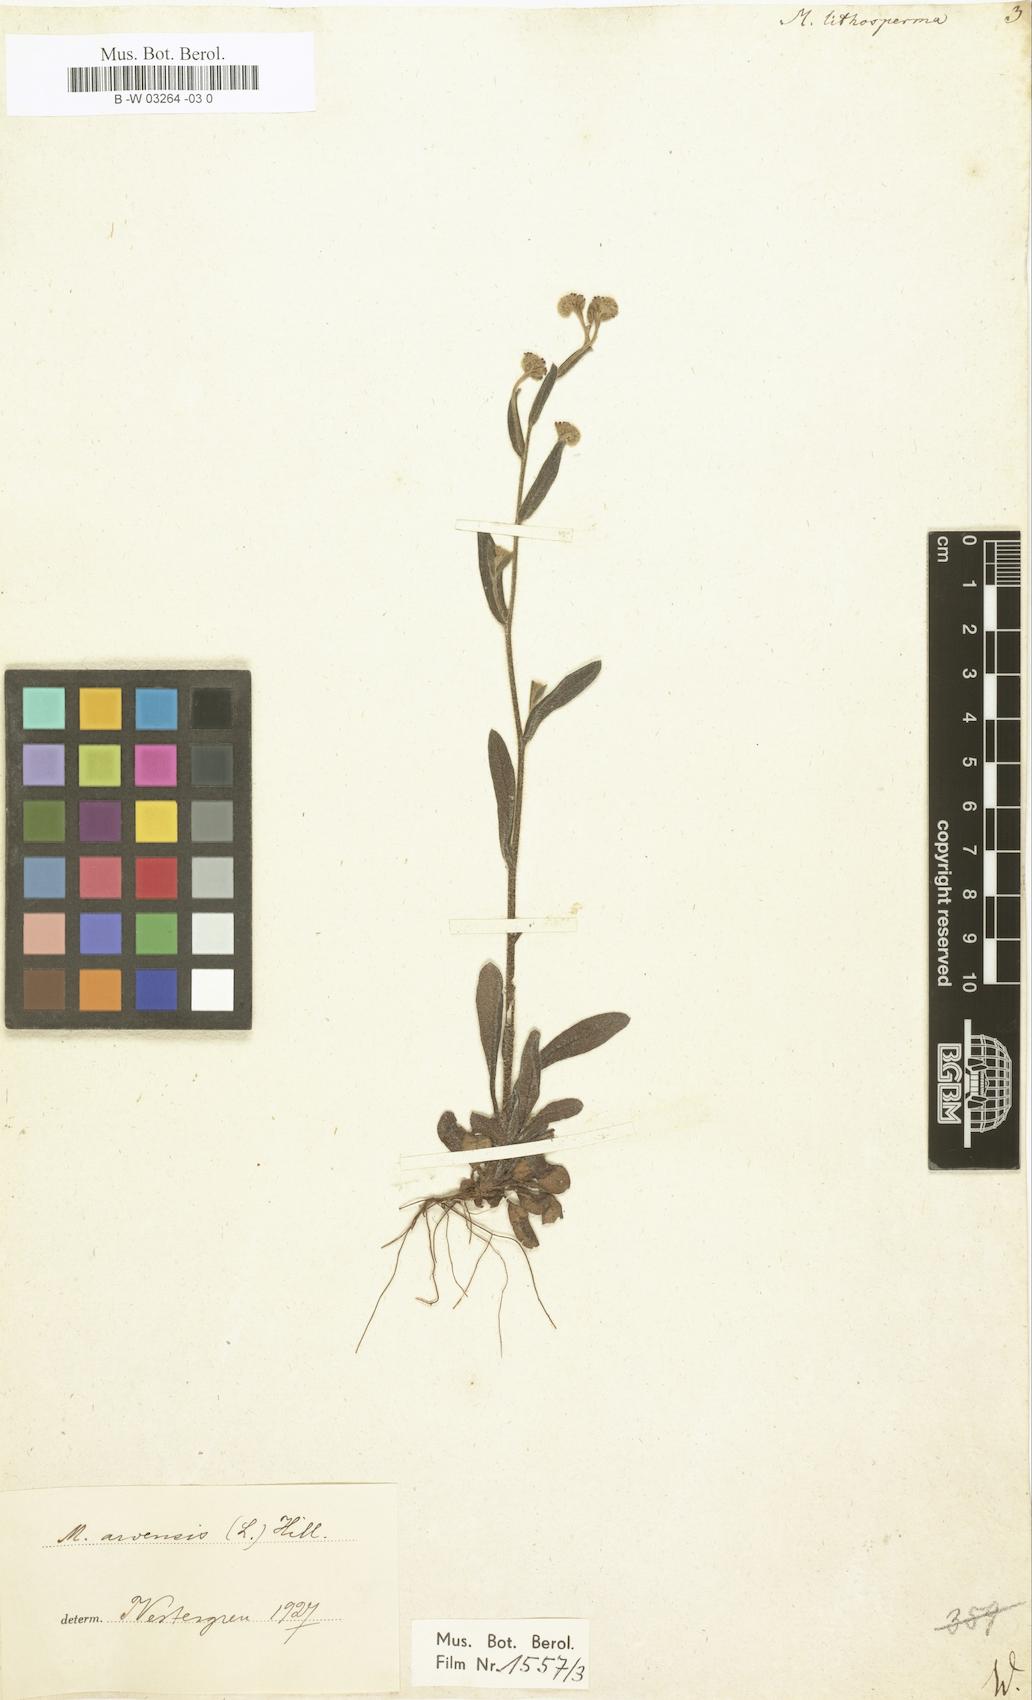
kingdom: Plantae
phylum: Tracheophyta
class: Magnoliopsida
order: Boraginales
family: Boraginaceae
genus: Myosotis
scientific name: Myosotis
